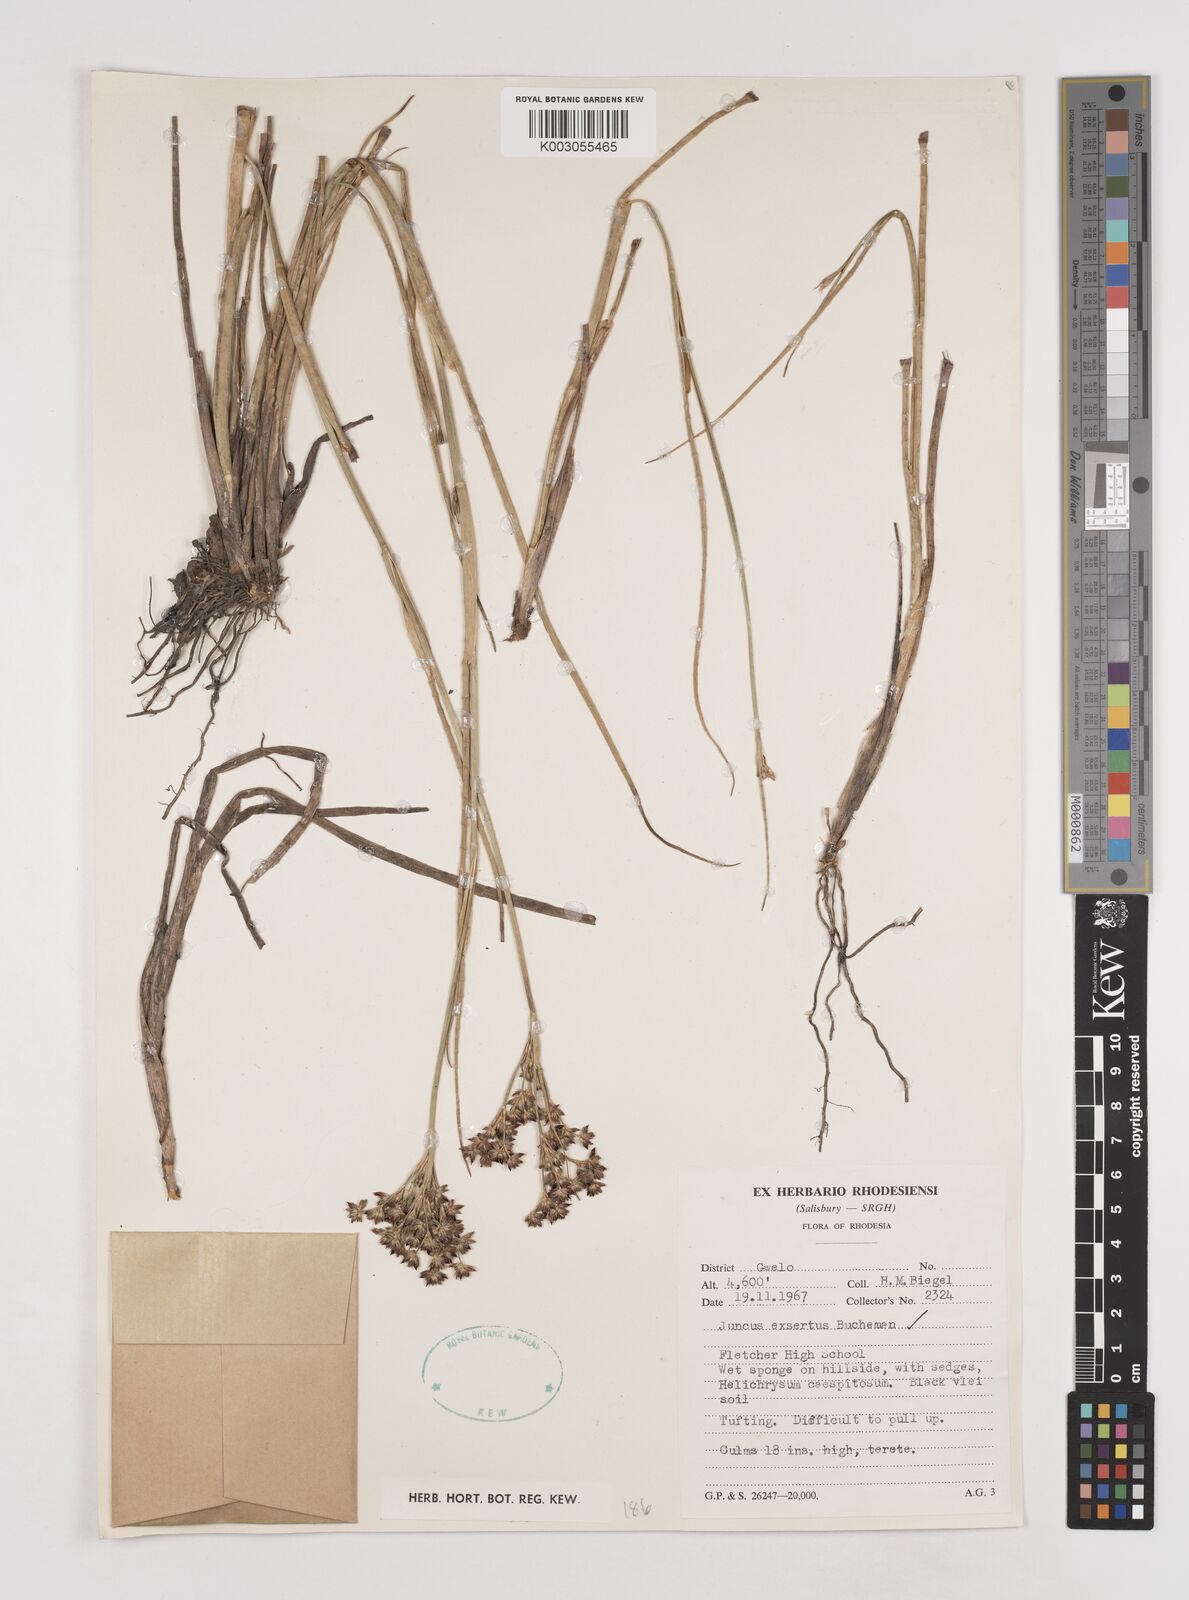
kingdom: Plantae
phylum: Tracheophyta
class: Liliopsida
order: Poales
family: Juncaceae
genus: Juncus
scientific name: Juncus exsertus
